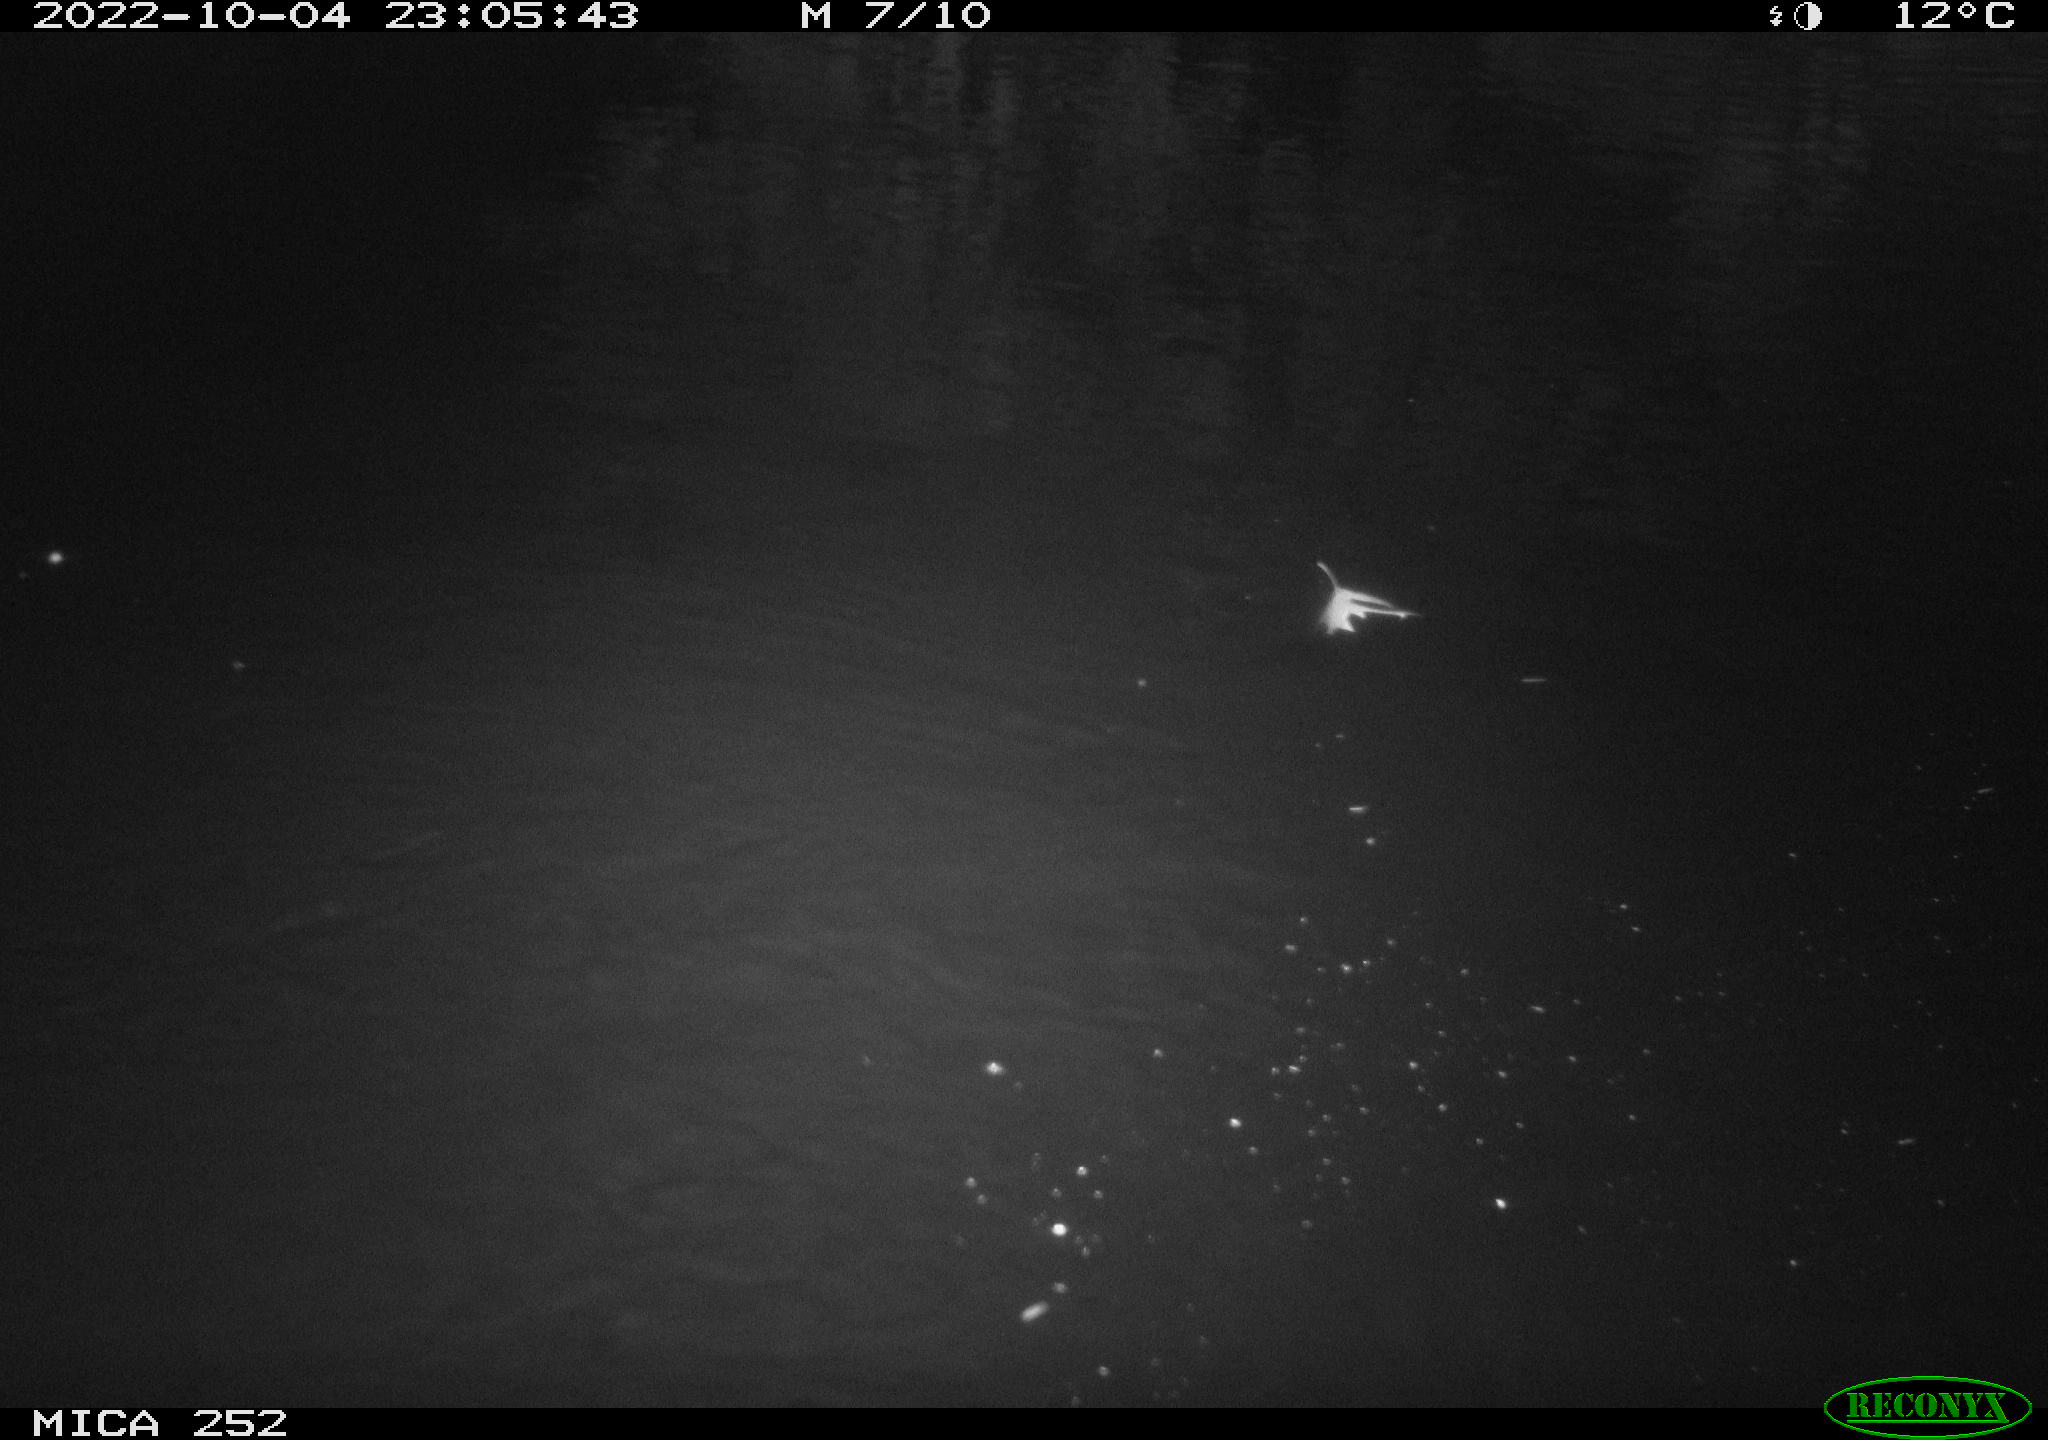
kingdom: Animalia
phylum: Chordata
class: Mammalia
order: Rodentia
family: Castoridae
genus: Castor
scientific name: Castor fiber
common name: Eurasian beaver
